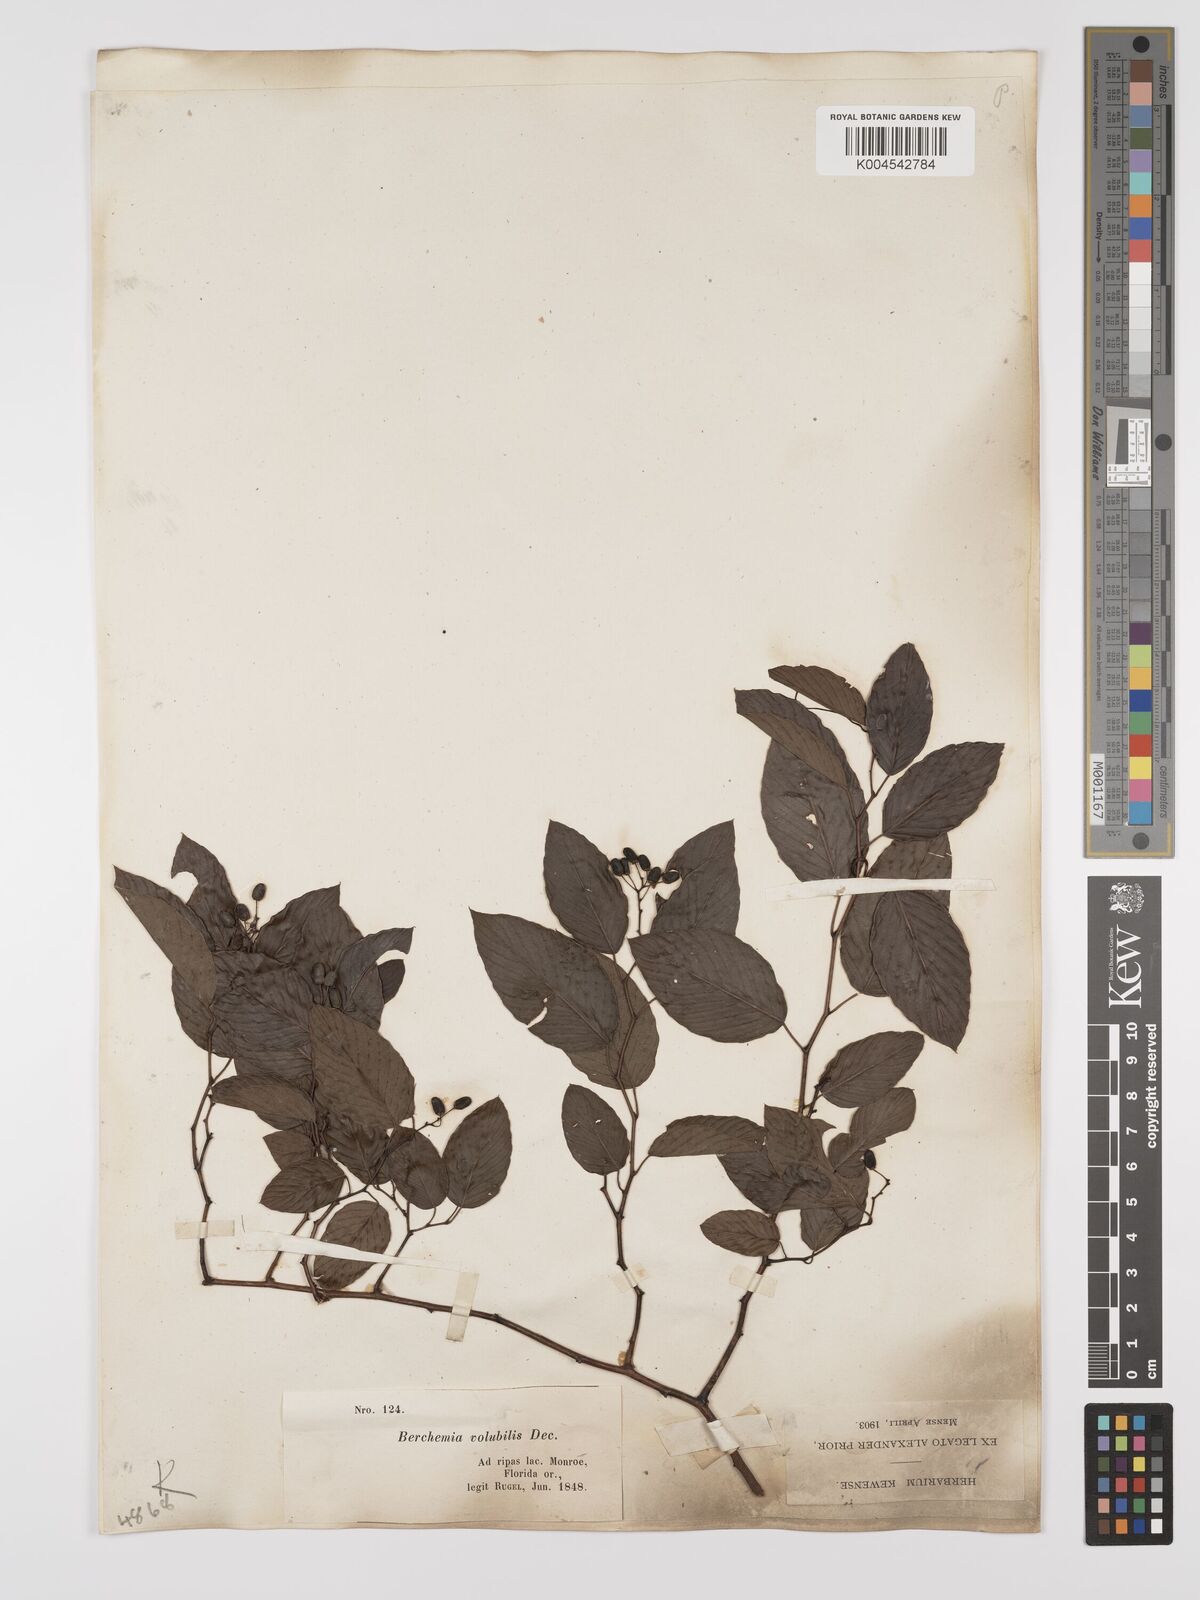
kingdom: Plantae
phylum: Tracheophyta
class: Magnoliopsida
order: Rosales
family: Rhamnaceae
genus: Berchemia
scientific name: Berchemia scandens
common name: Supplejack
